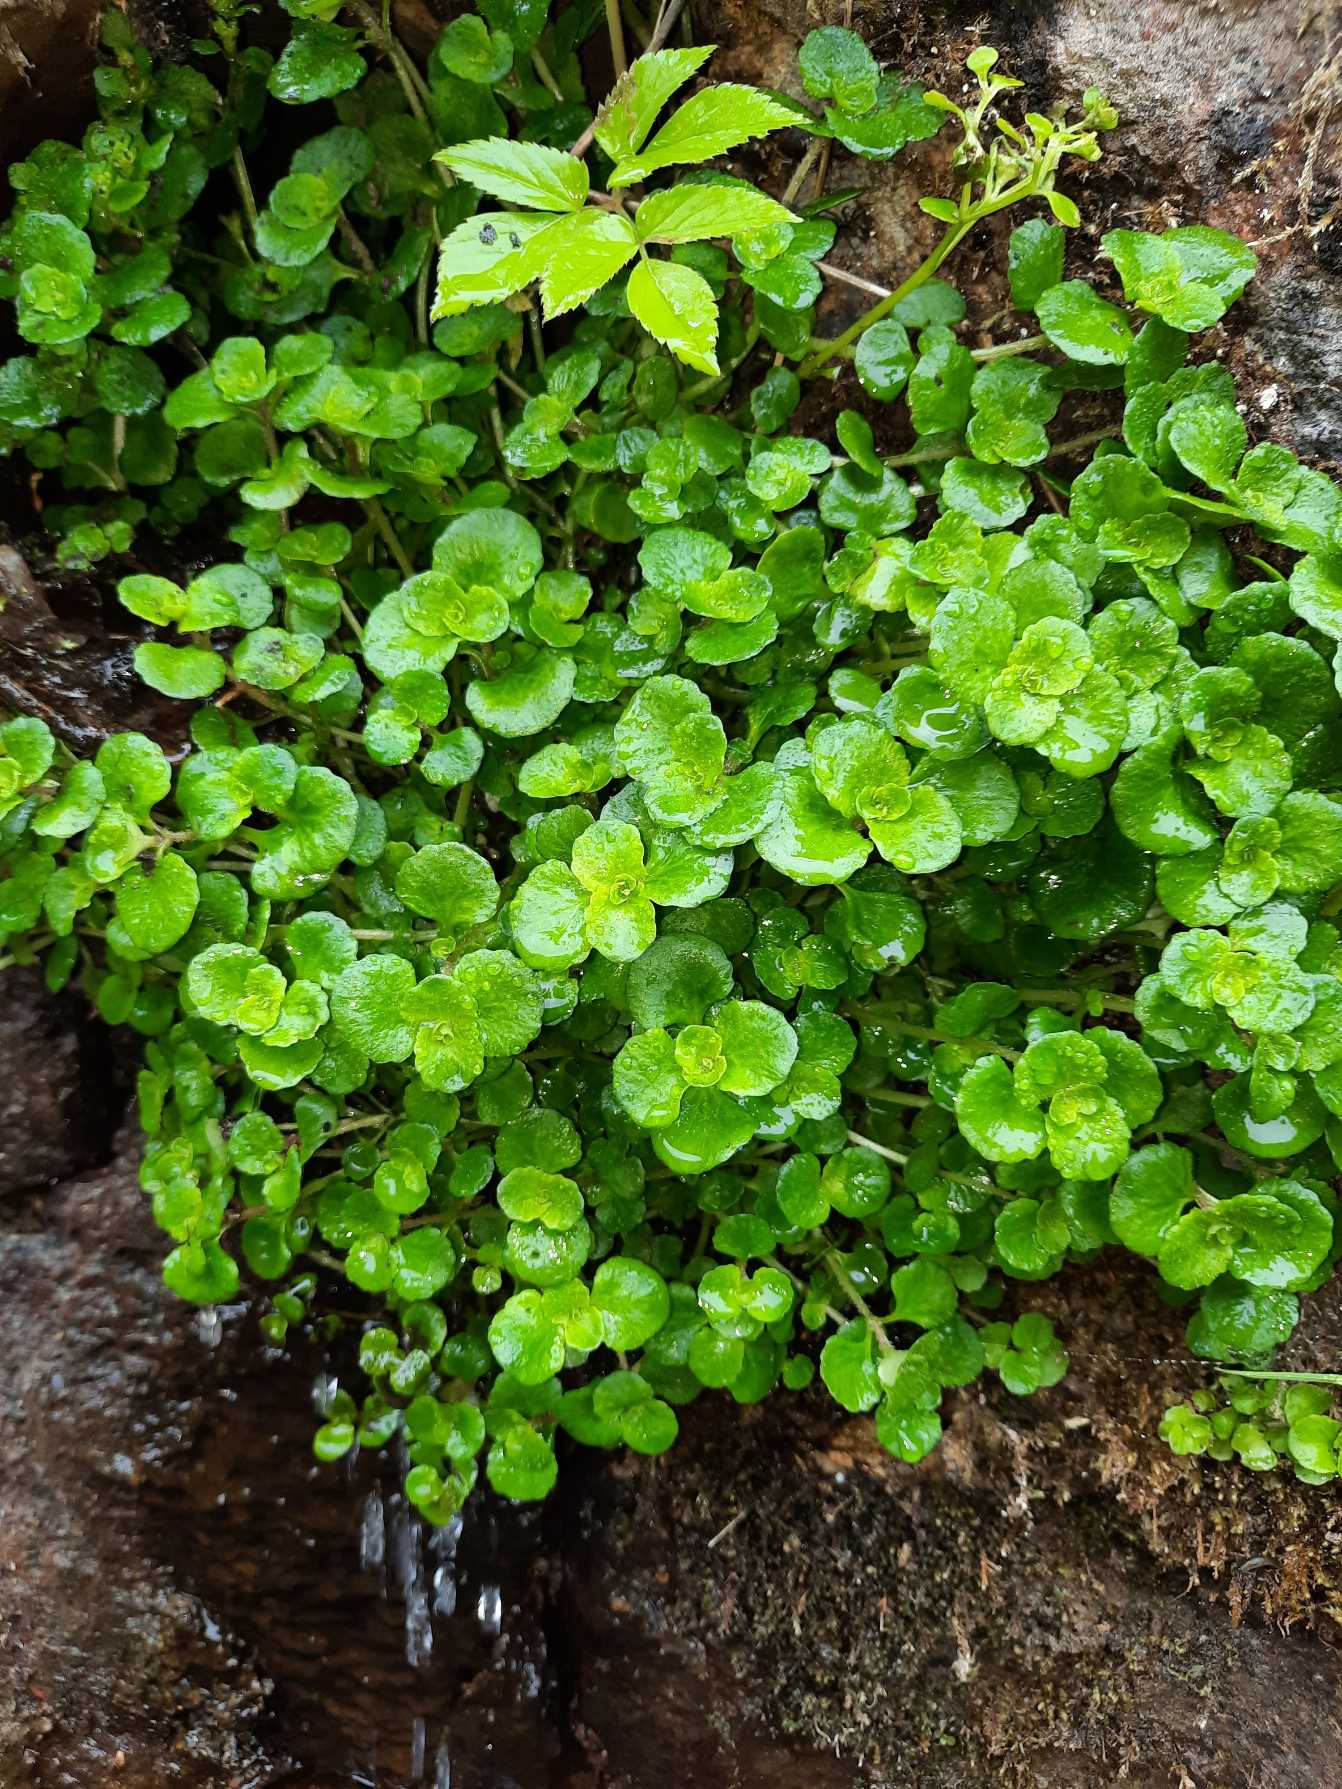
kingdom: Plantae
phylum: Tracheophyta
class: Magnoliopsida
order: Saxifragales
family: Saxifragaceae
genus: Chrysosplenium
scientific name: Chrysosplenium oppositifolium
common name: Småbladet milturt
